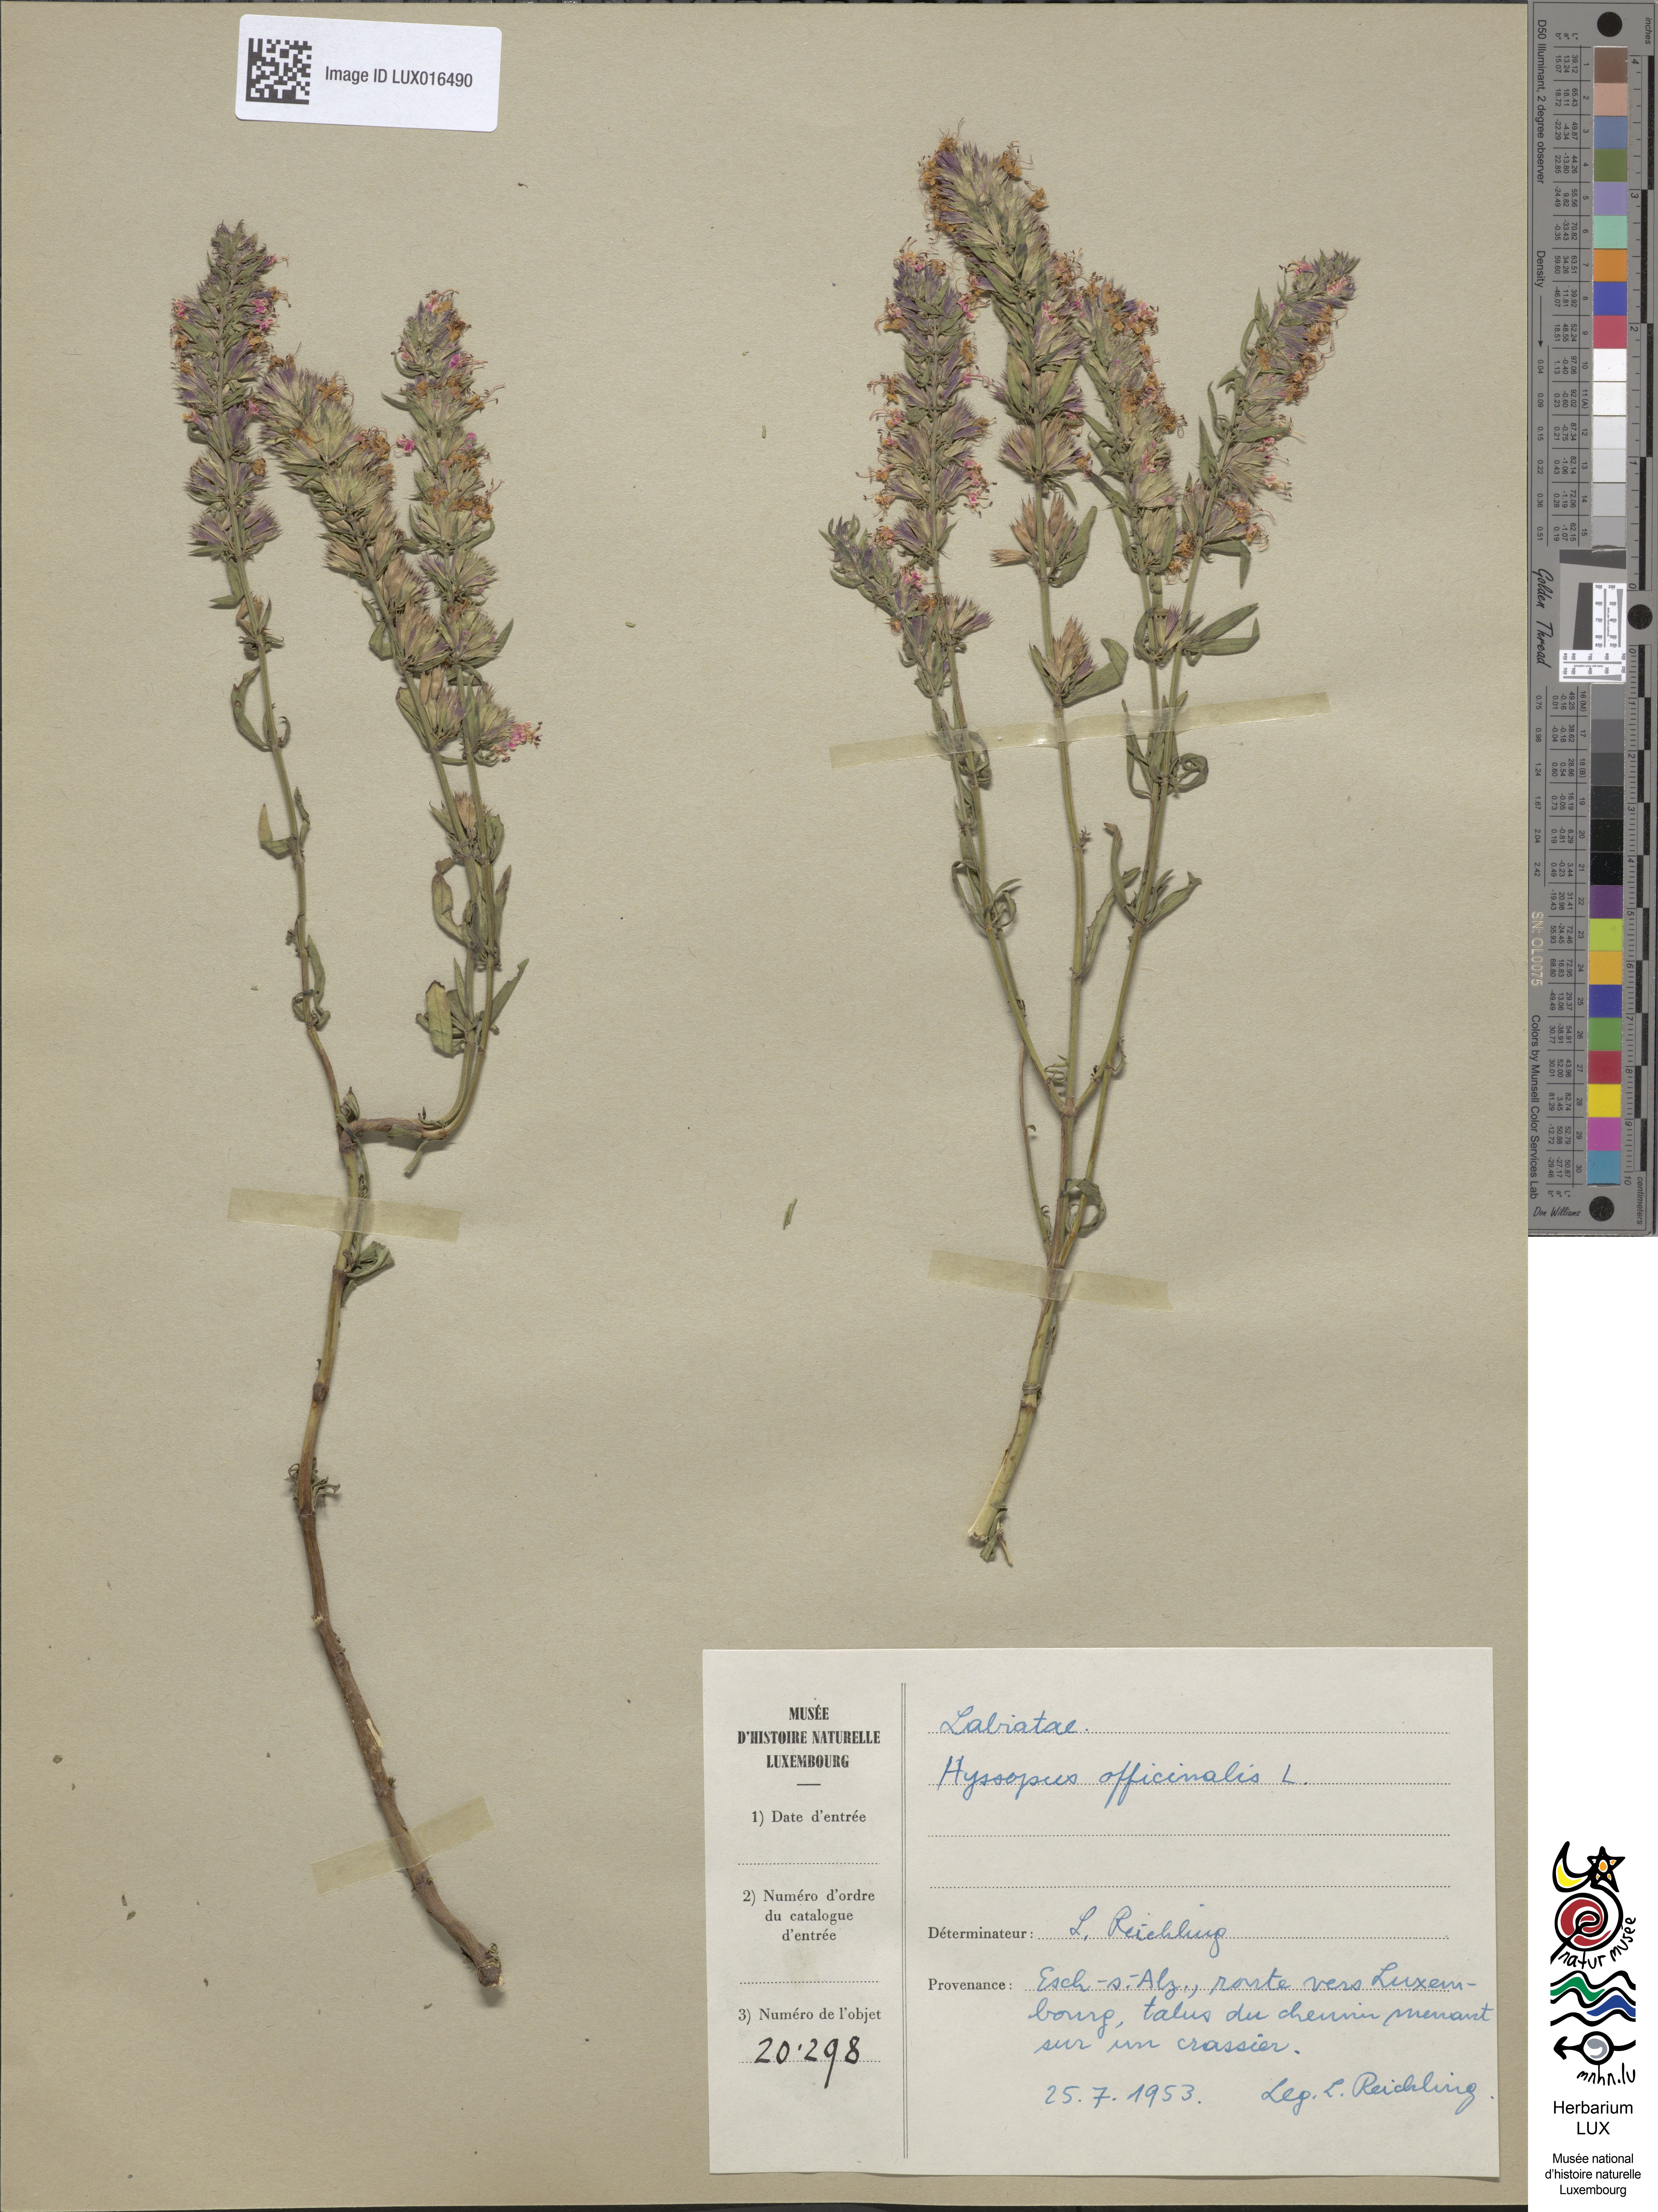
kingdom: Plantae
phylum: Tracheophyta
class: Magnoliopsida
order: Lamiales
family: Lamiaceae
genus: Hyssopus
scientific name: Hyssopus officinalis
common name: Hyssop
